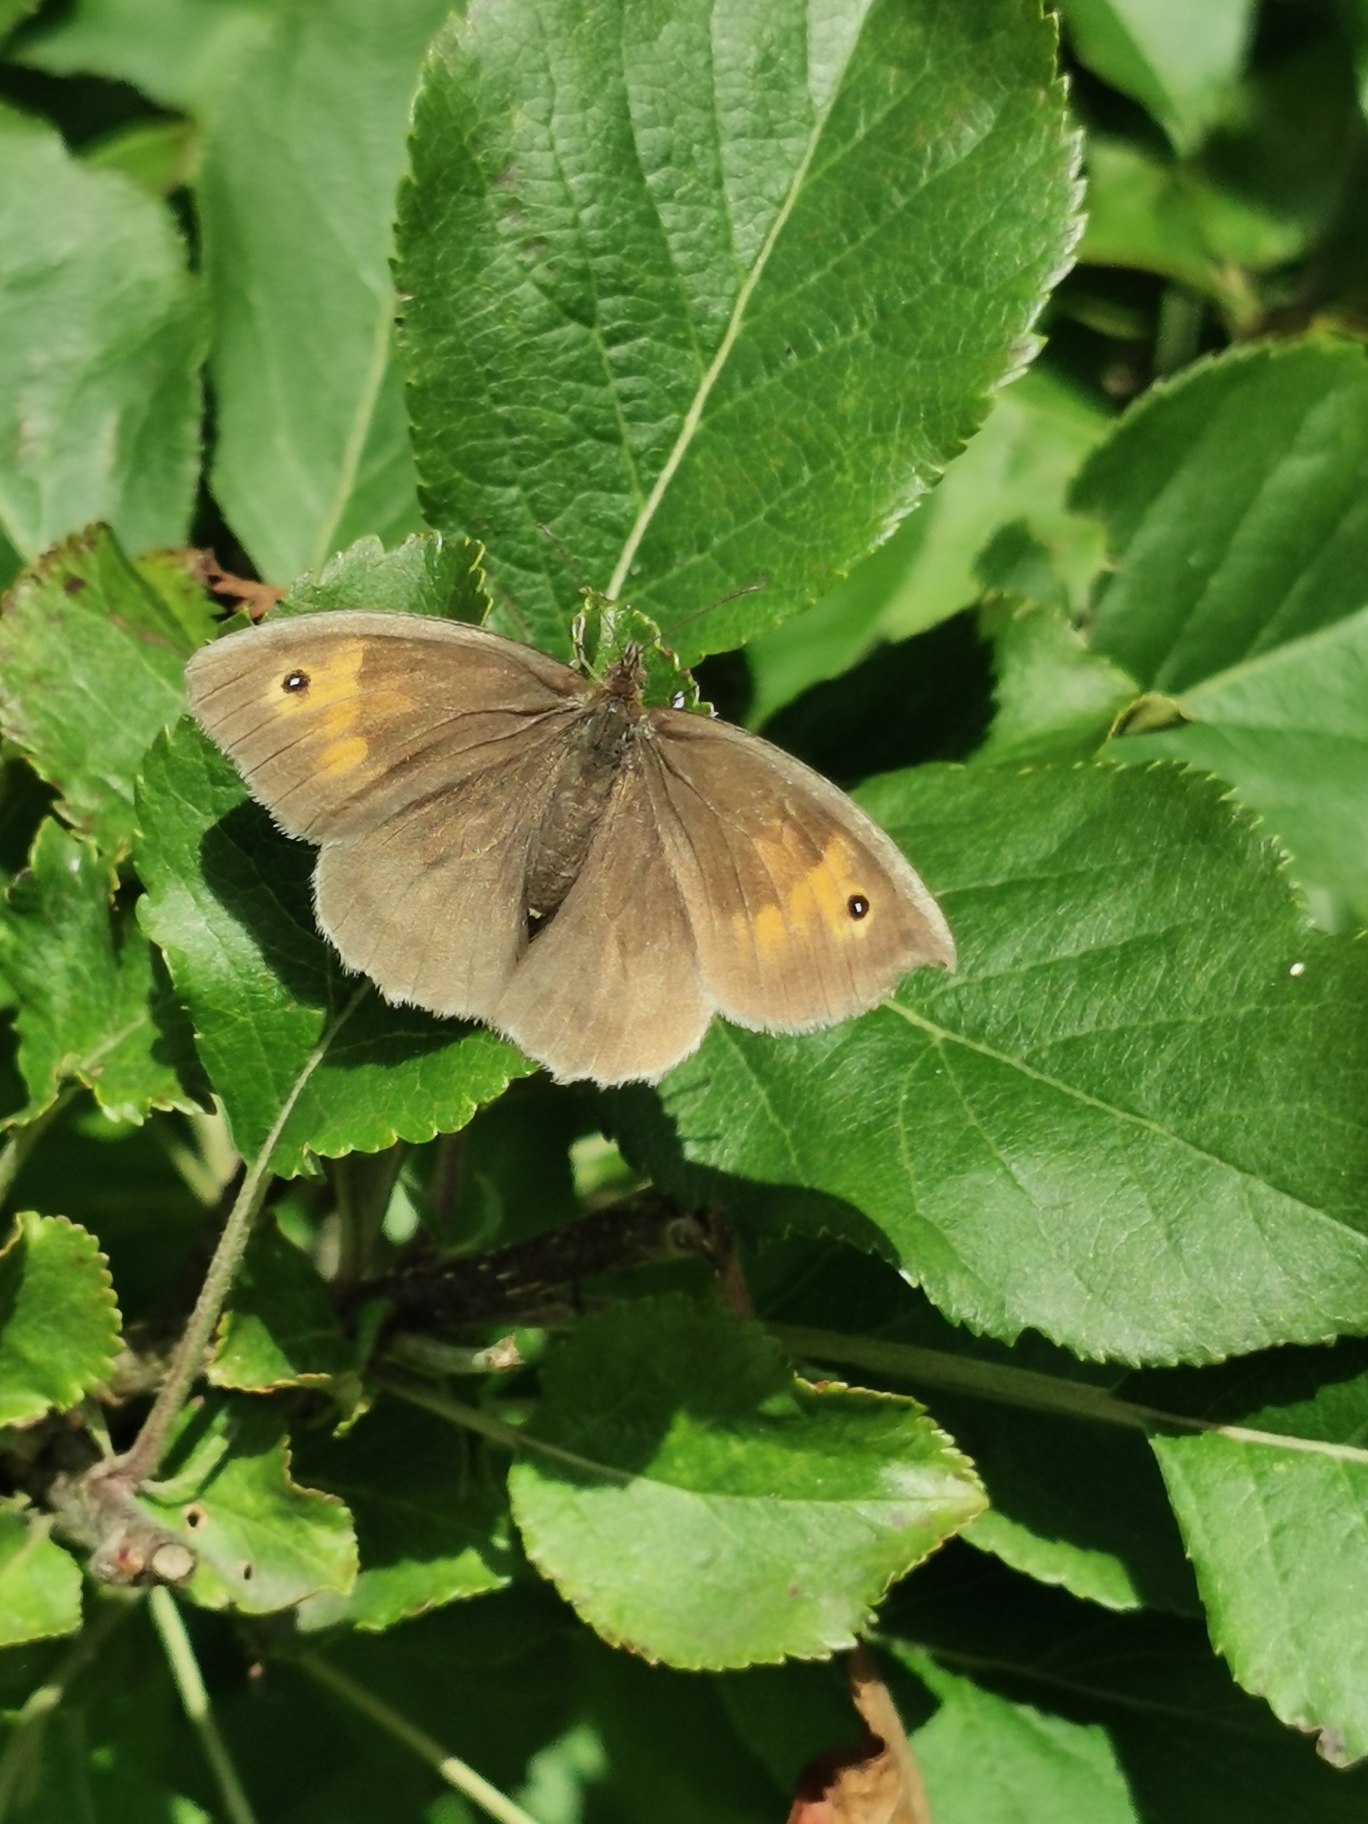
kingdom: Animalia
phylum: Arthropoda
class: Insecta
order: Lepidoptera
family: Nymphalidae
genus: Maniola
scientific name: Maniola jurtina
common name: Græsrandøje
